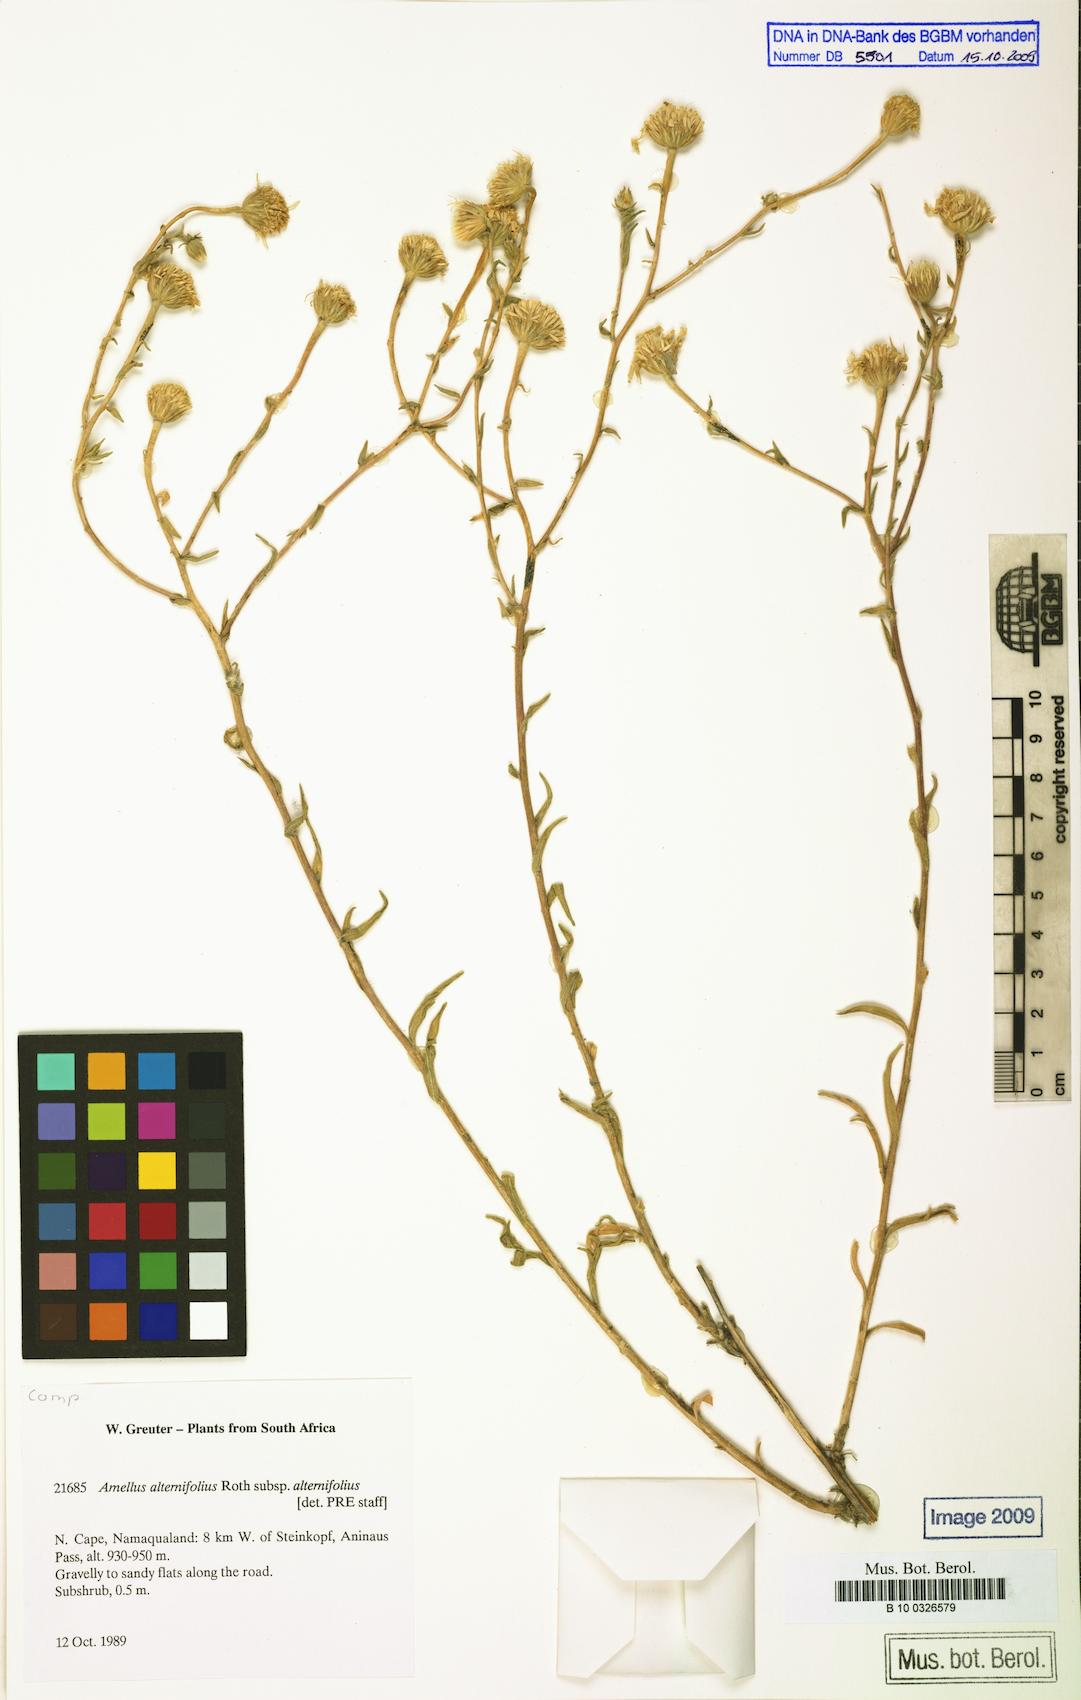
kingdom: Plantae
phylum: Tracheophyta
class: Magnoliopsida
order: Asterales
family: Asteraceae
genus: Amellus
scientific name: Amellus alternifolius
